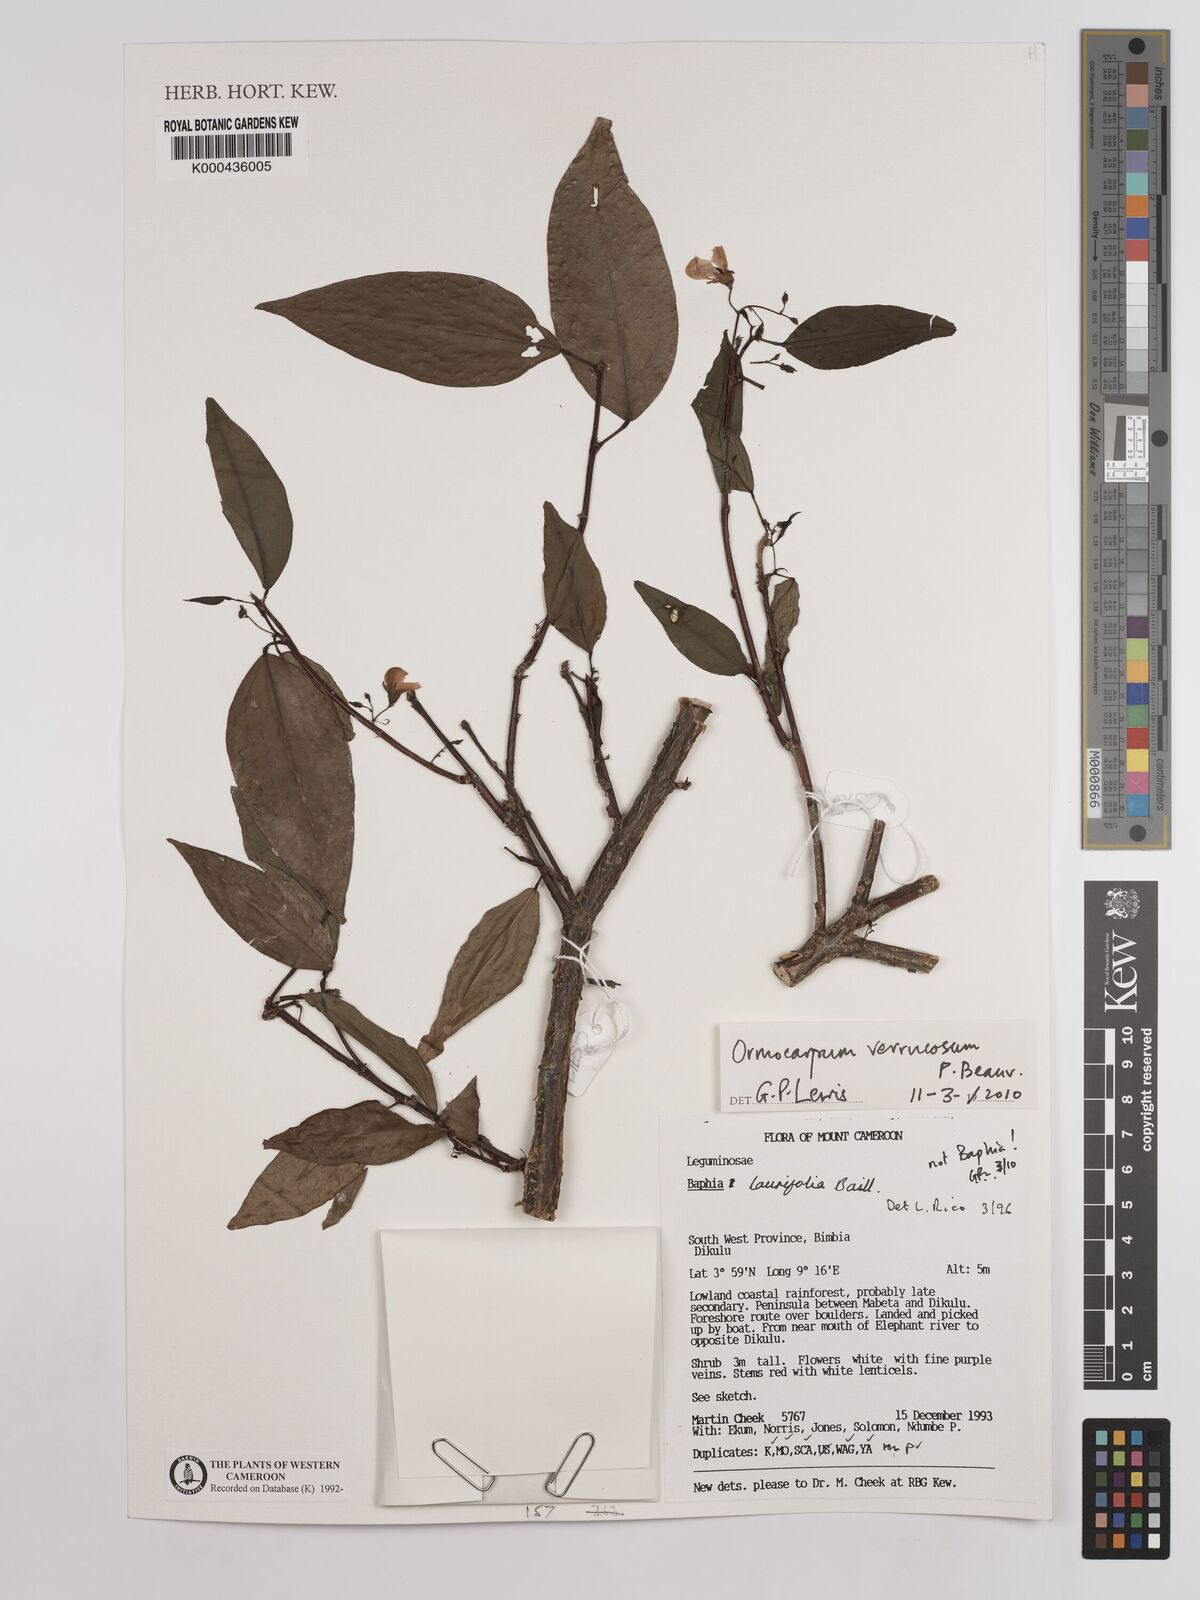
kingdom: Plantae
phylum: Tracheophyta
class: Magnoliopsida
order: Fabales
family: Fabaceae
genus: Ormocarpum
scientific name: Ormocarpum verrucosum
